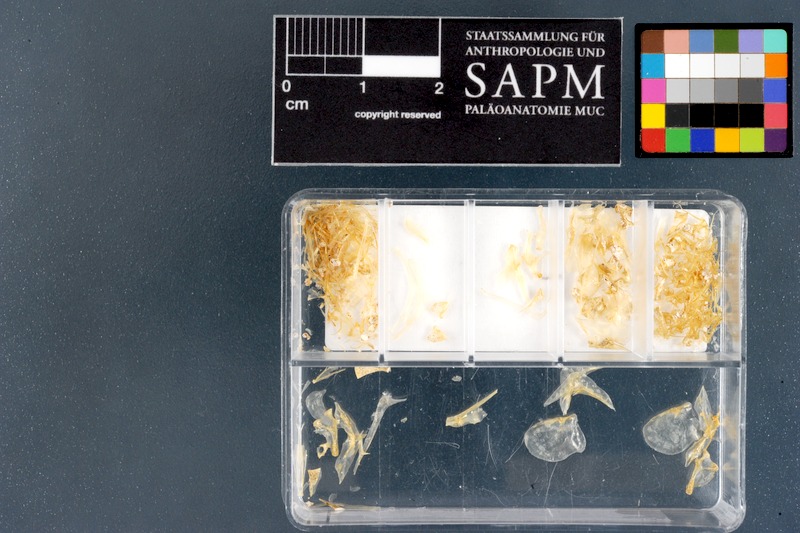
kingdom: Animalia
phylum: Chordata
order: Cypriniformes
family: Cyprinidae
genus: Engraulicypris
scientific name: Engraulicypris sardella
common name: Lake malawi sardine
